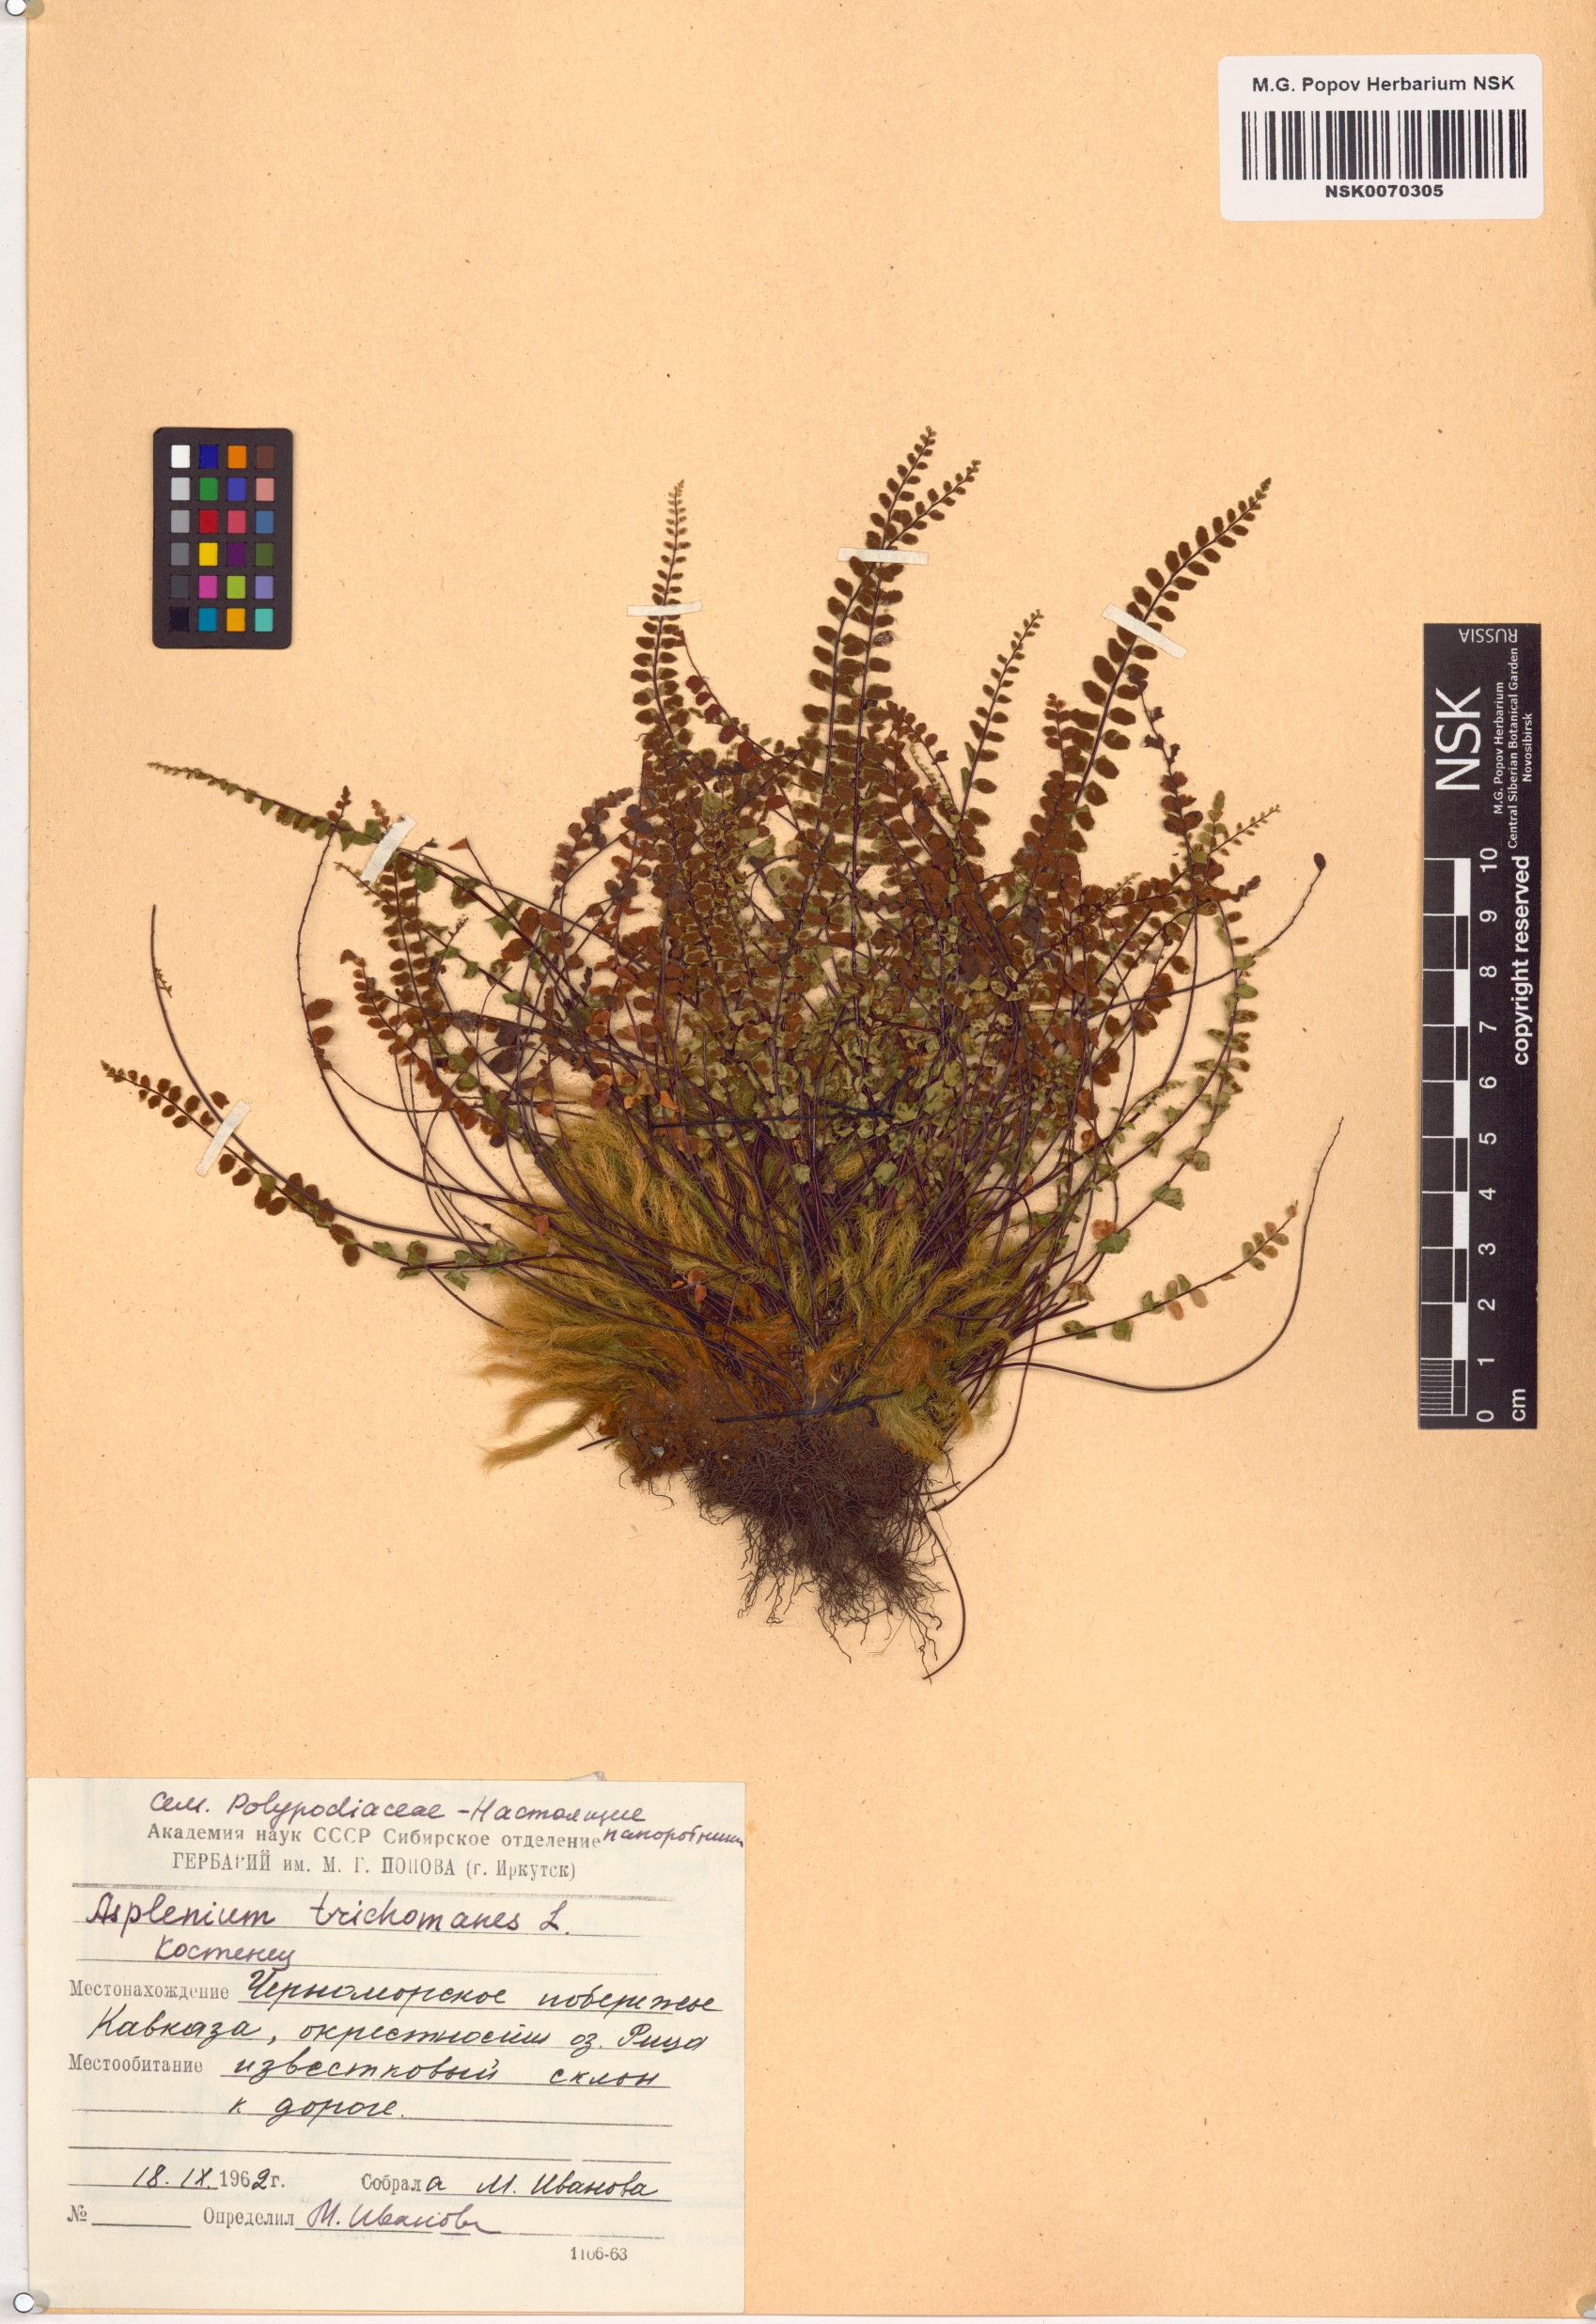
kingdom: Plantae
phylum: Tracheophyta
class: Polypodiopsida
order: Polypodiales
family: Aspleniaceae
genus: Asplenium
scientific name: Asplenium trichomanes
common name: Maidenhair spleenwort
